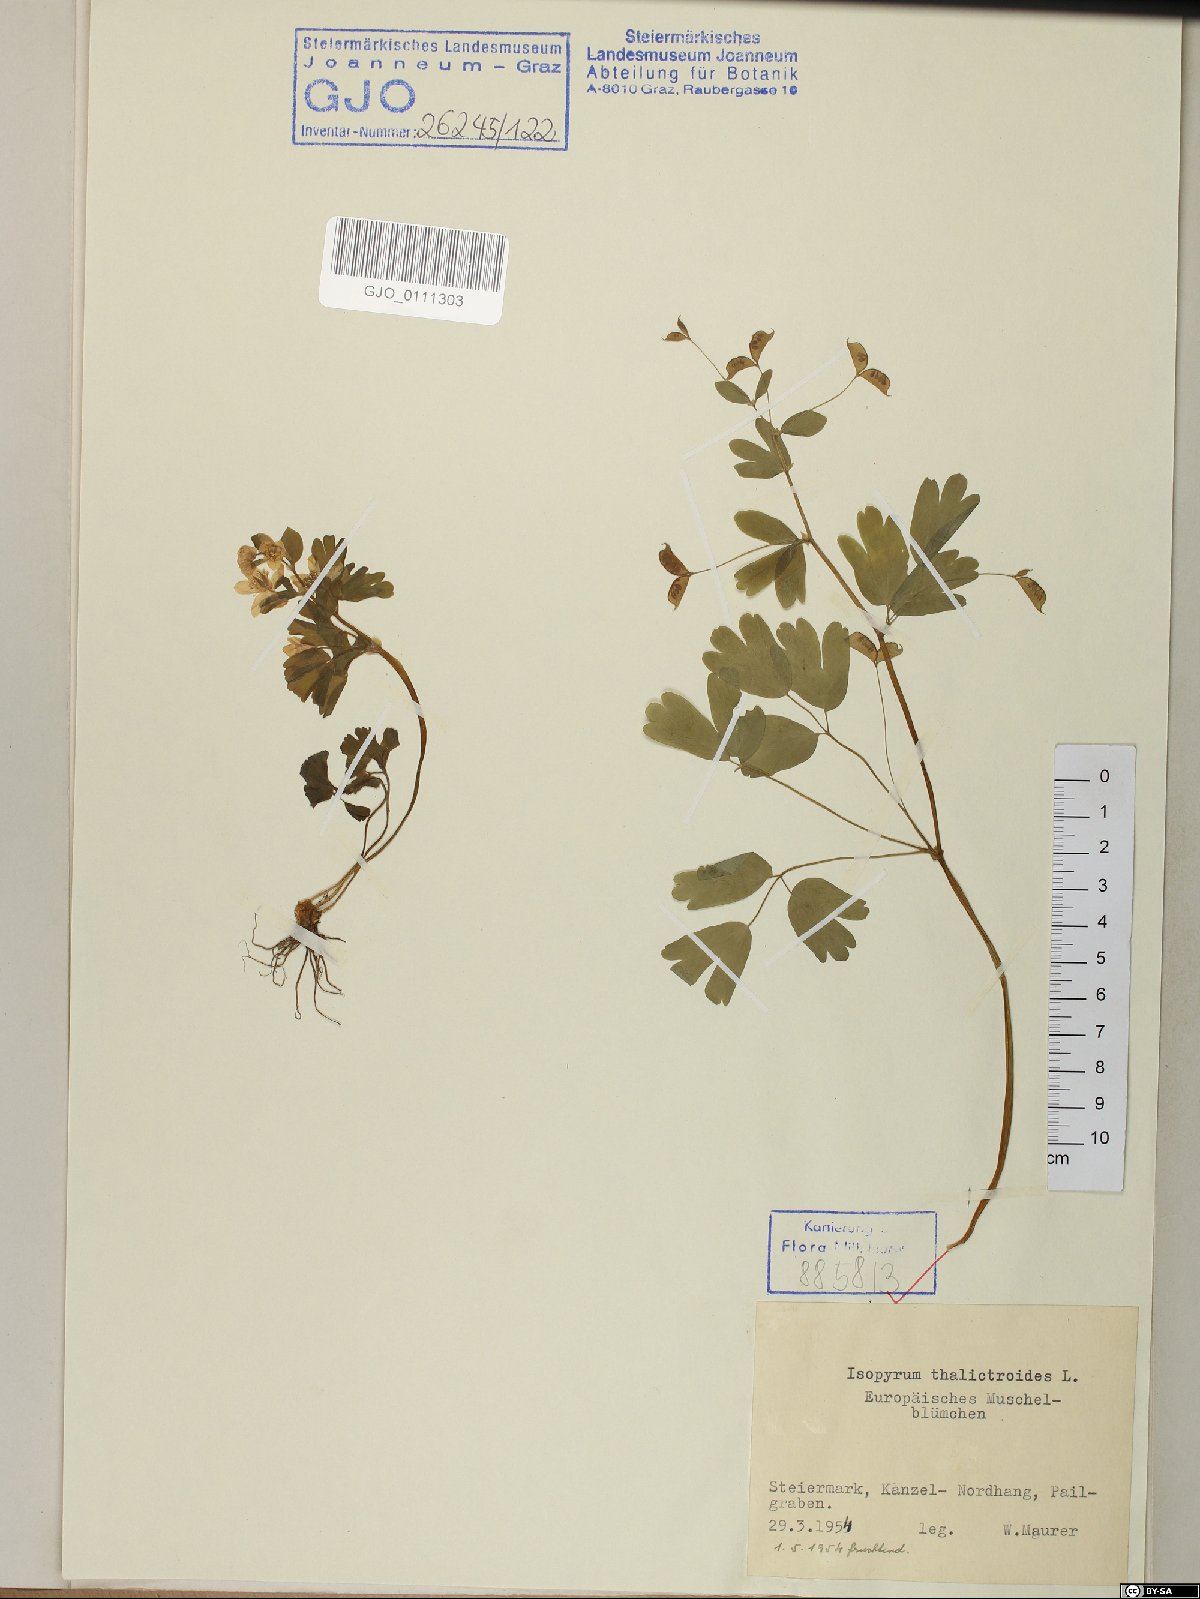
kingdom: Plantae
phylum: Tracheophyta
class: Magnoliopsida
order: Ranunculales
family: Ranunculaceae
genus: Isopyrum
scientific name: Isopyrum thalictroides
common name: Isopyrum
